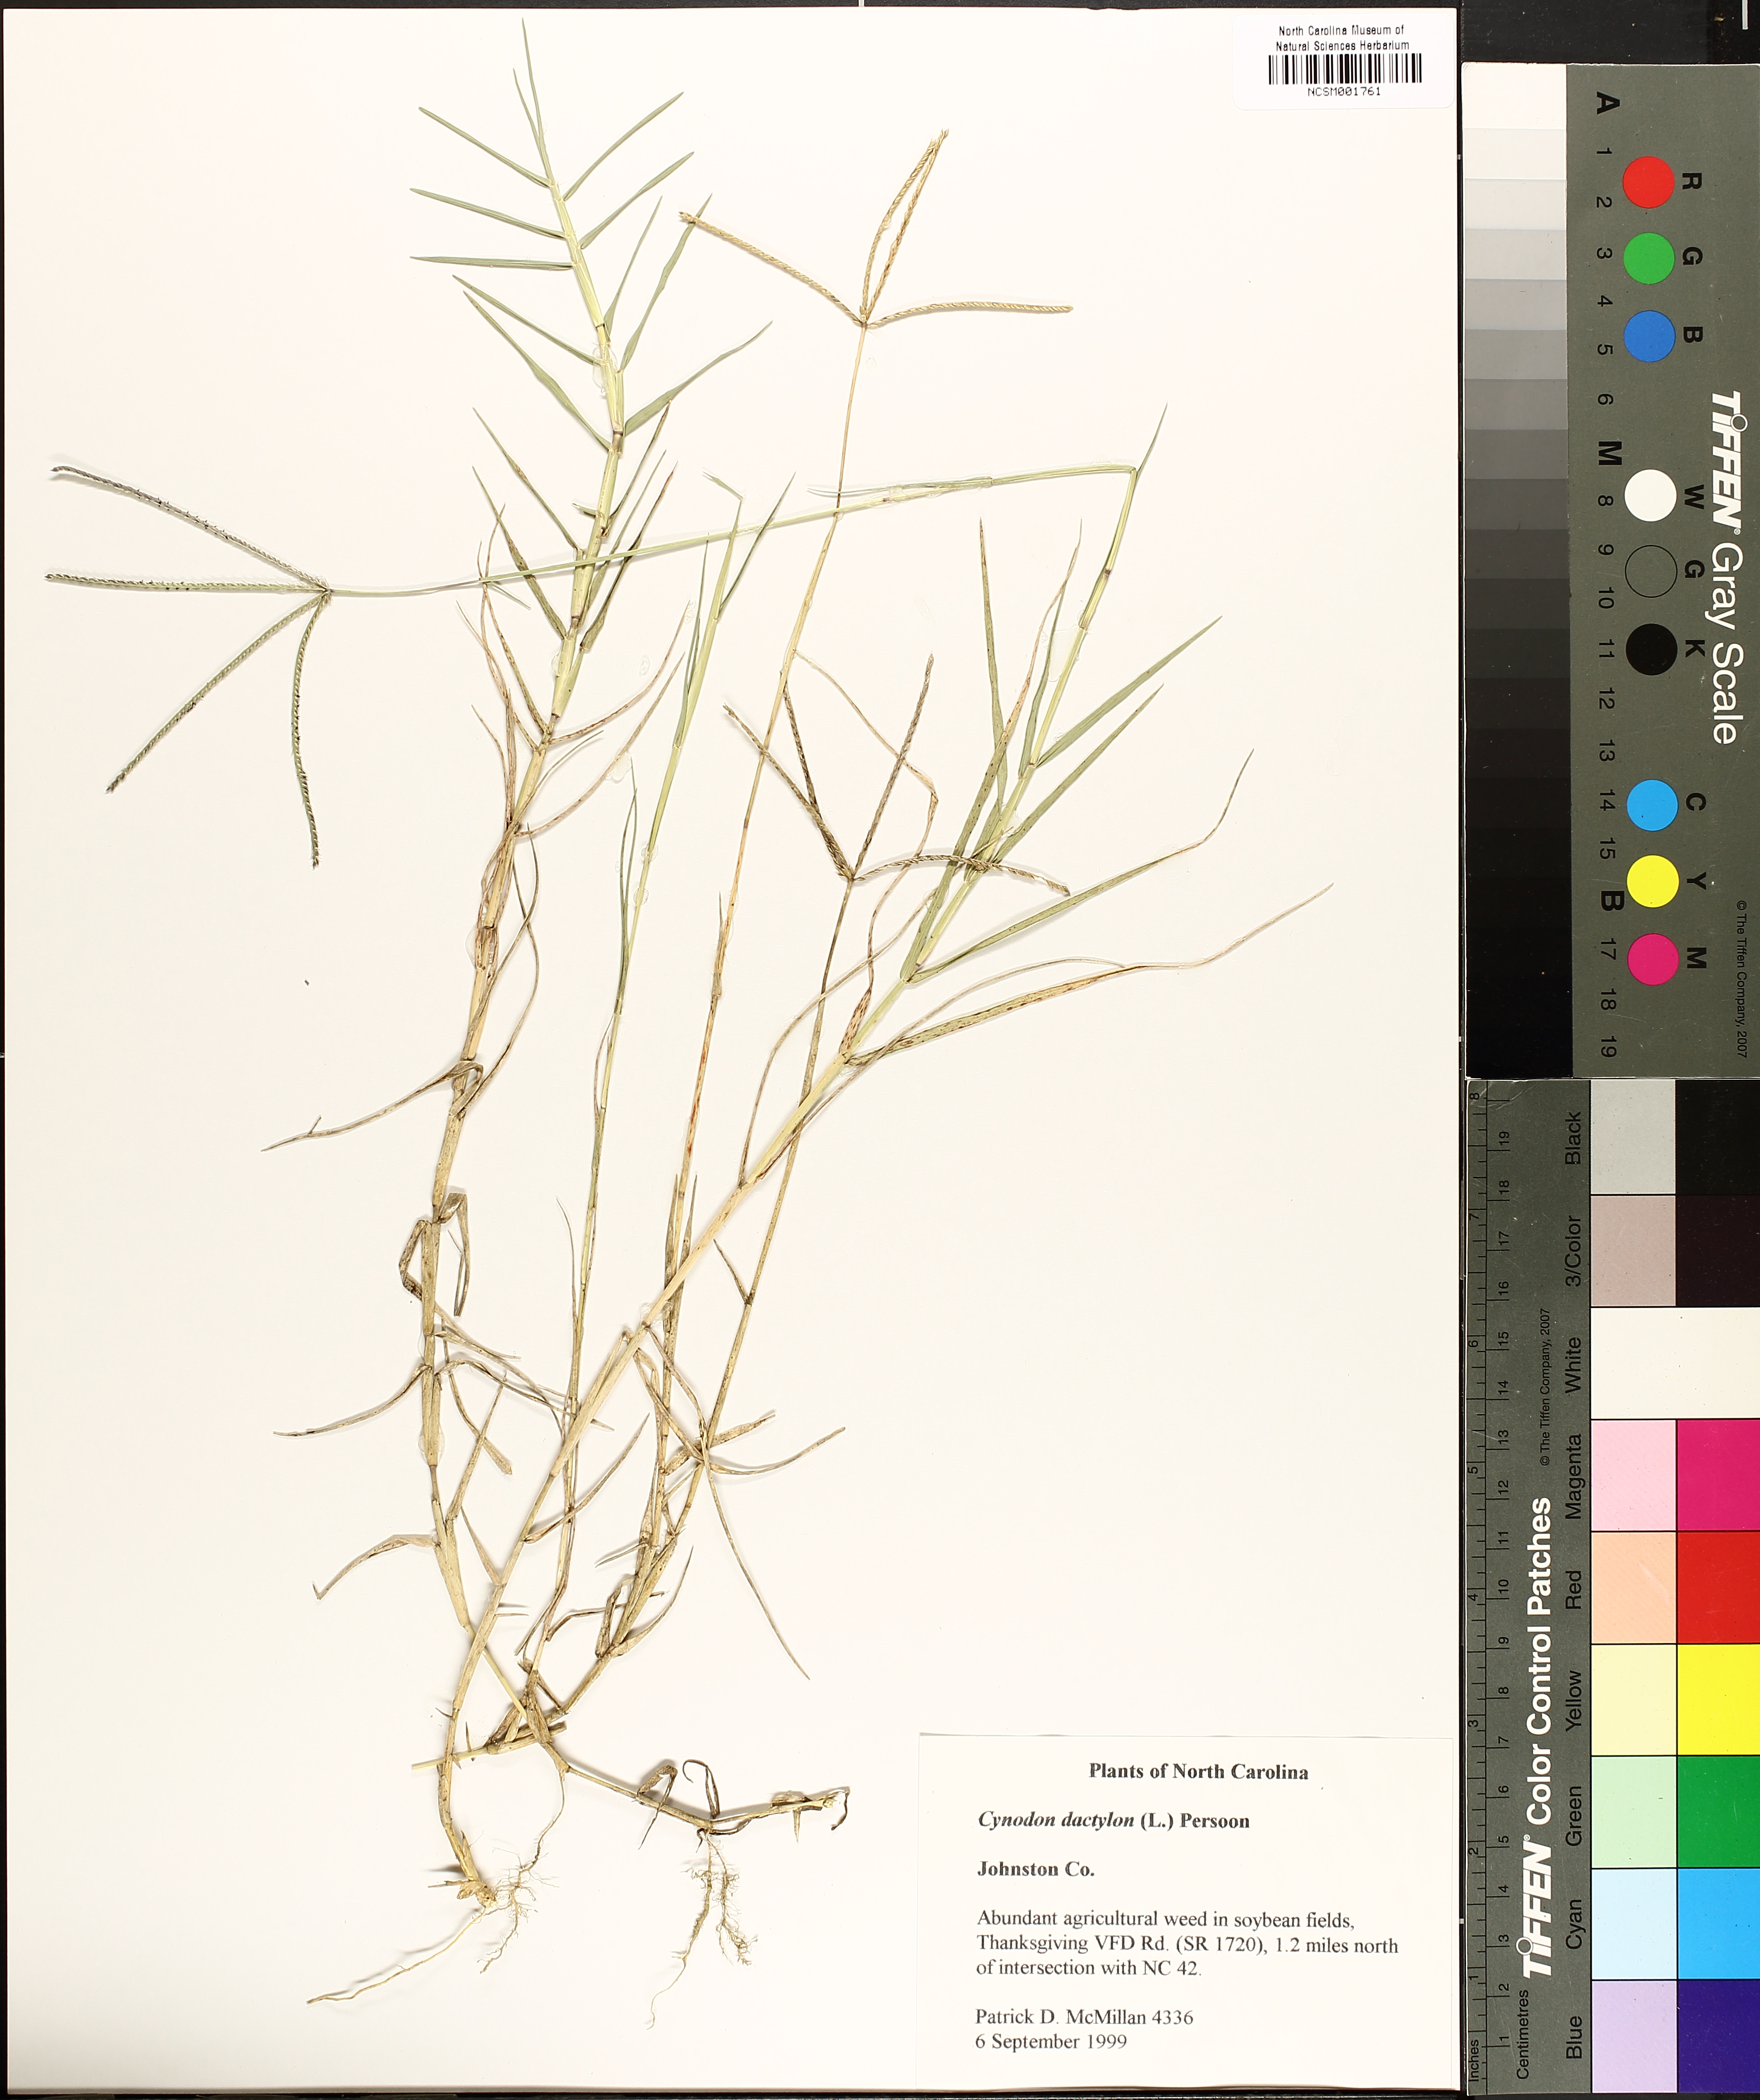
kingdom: Plantae
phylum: Tracheophyta
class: Liliopsida
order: Poales
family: Poaceae
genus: Cynodon
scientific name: Cynodon dactylon
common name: Bermuda grass
